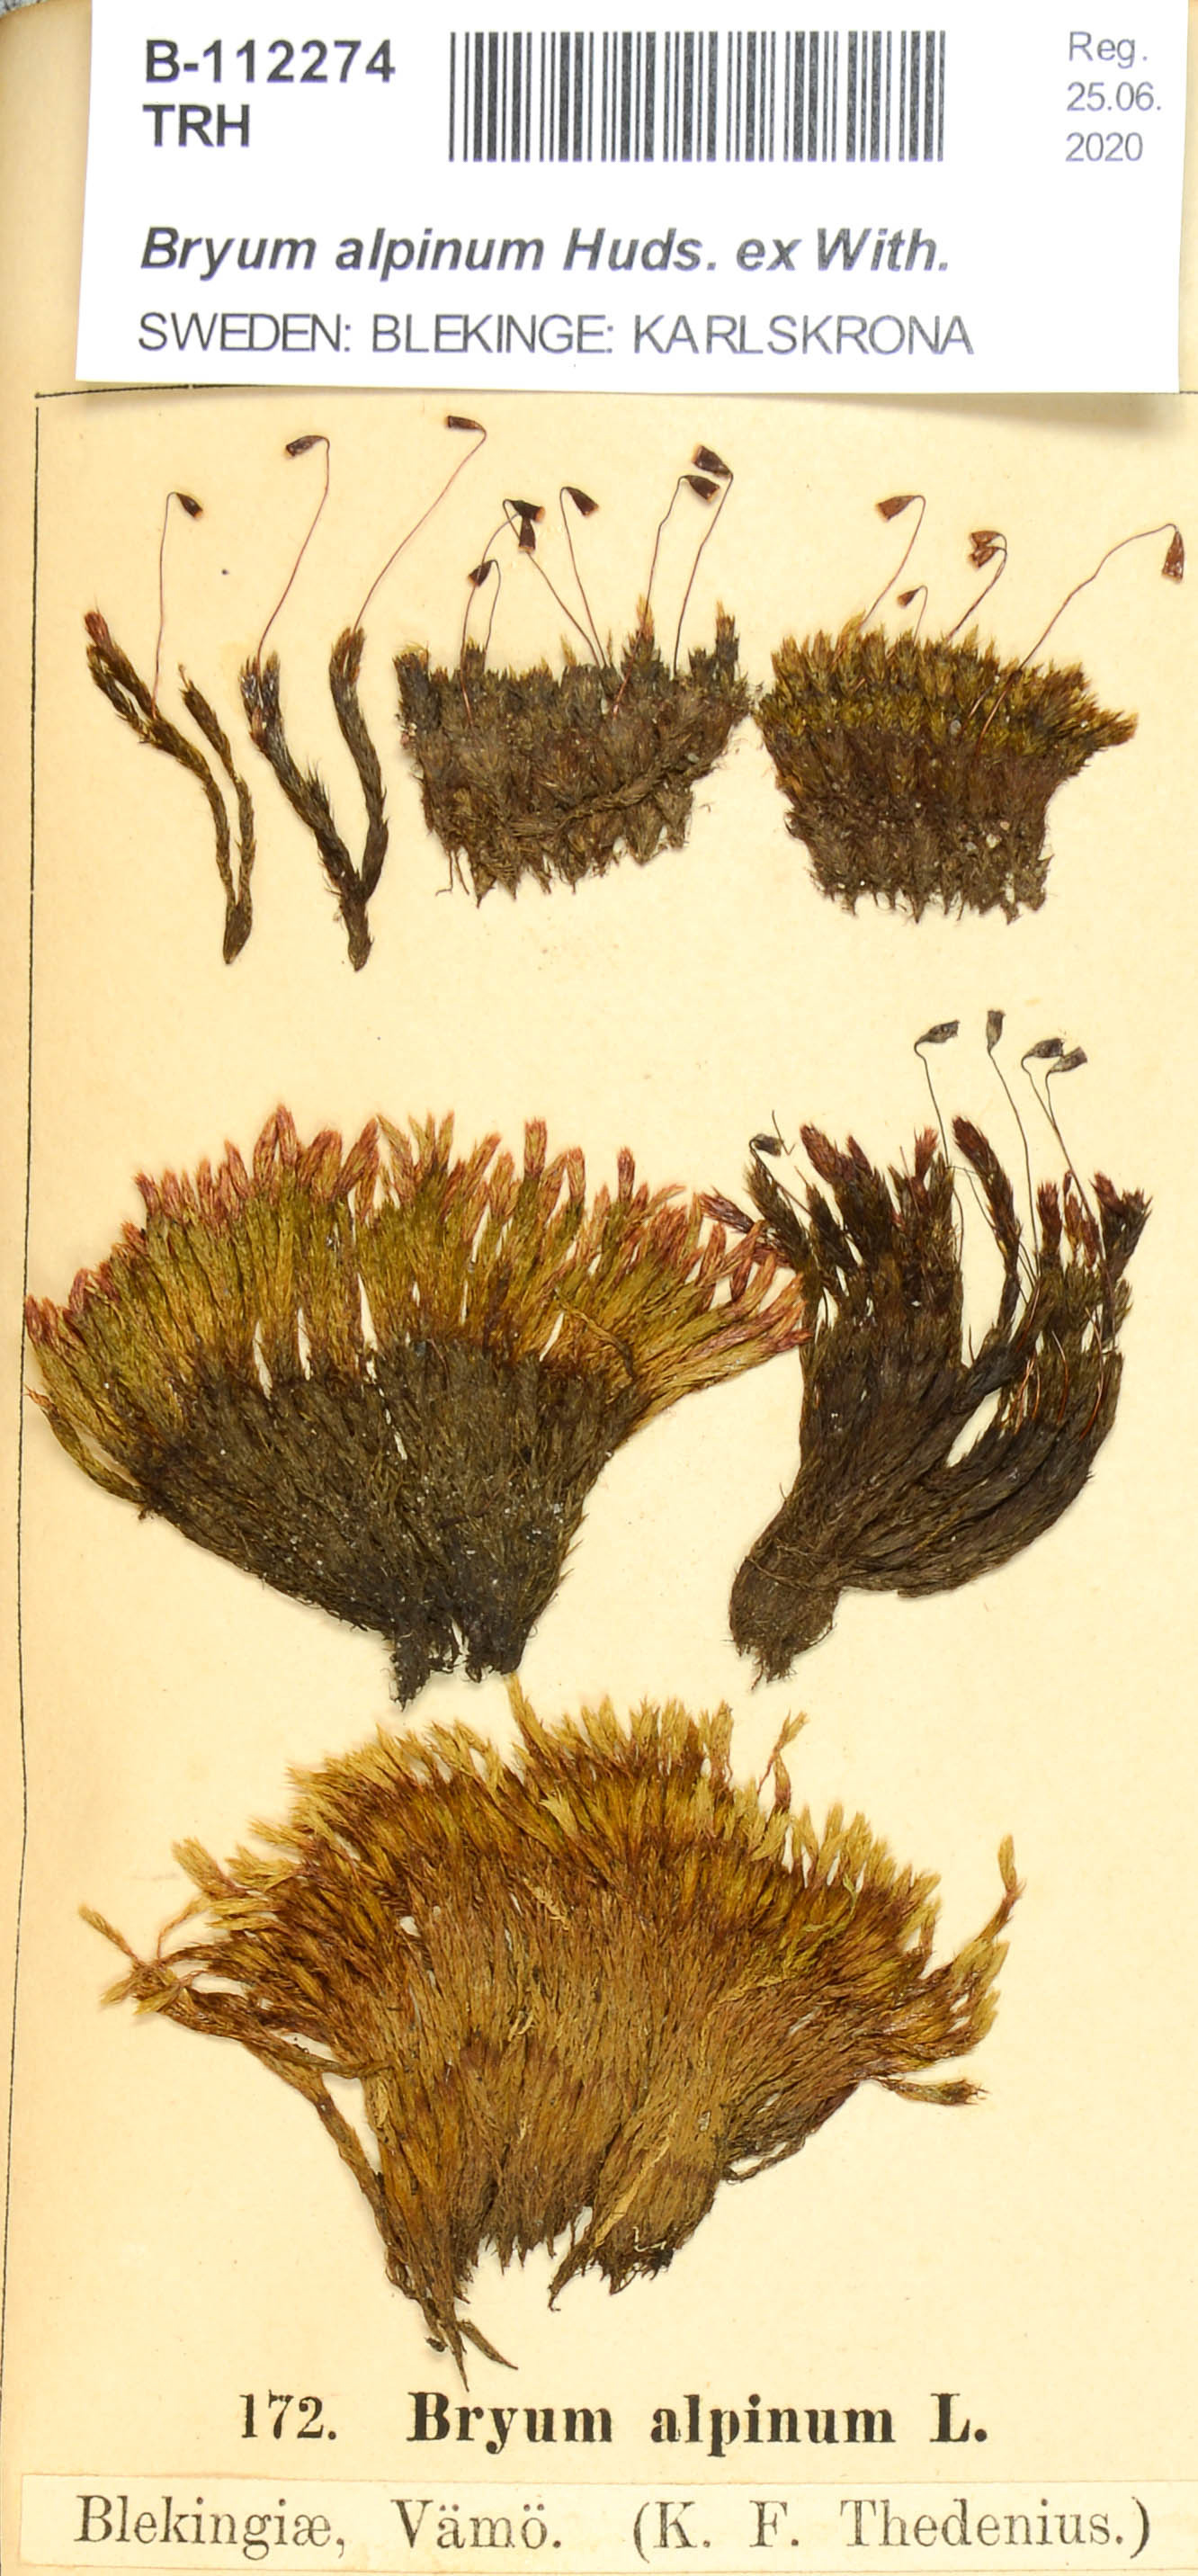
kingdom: Plantae
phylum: Bryophyta
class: Bryopsida
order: Bryales
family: Bryaceae
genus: Imbribryum
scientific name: Imbribryum alpinum
